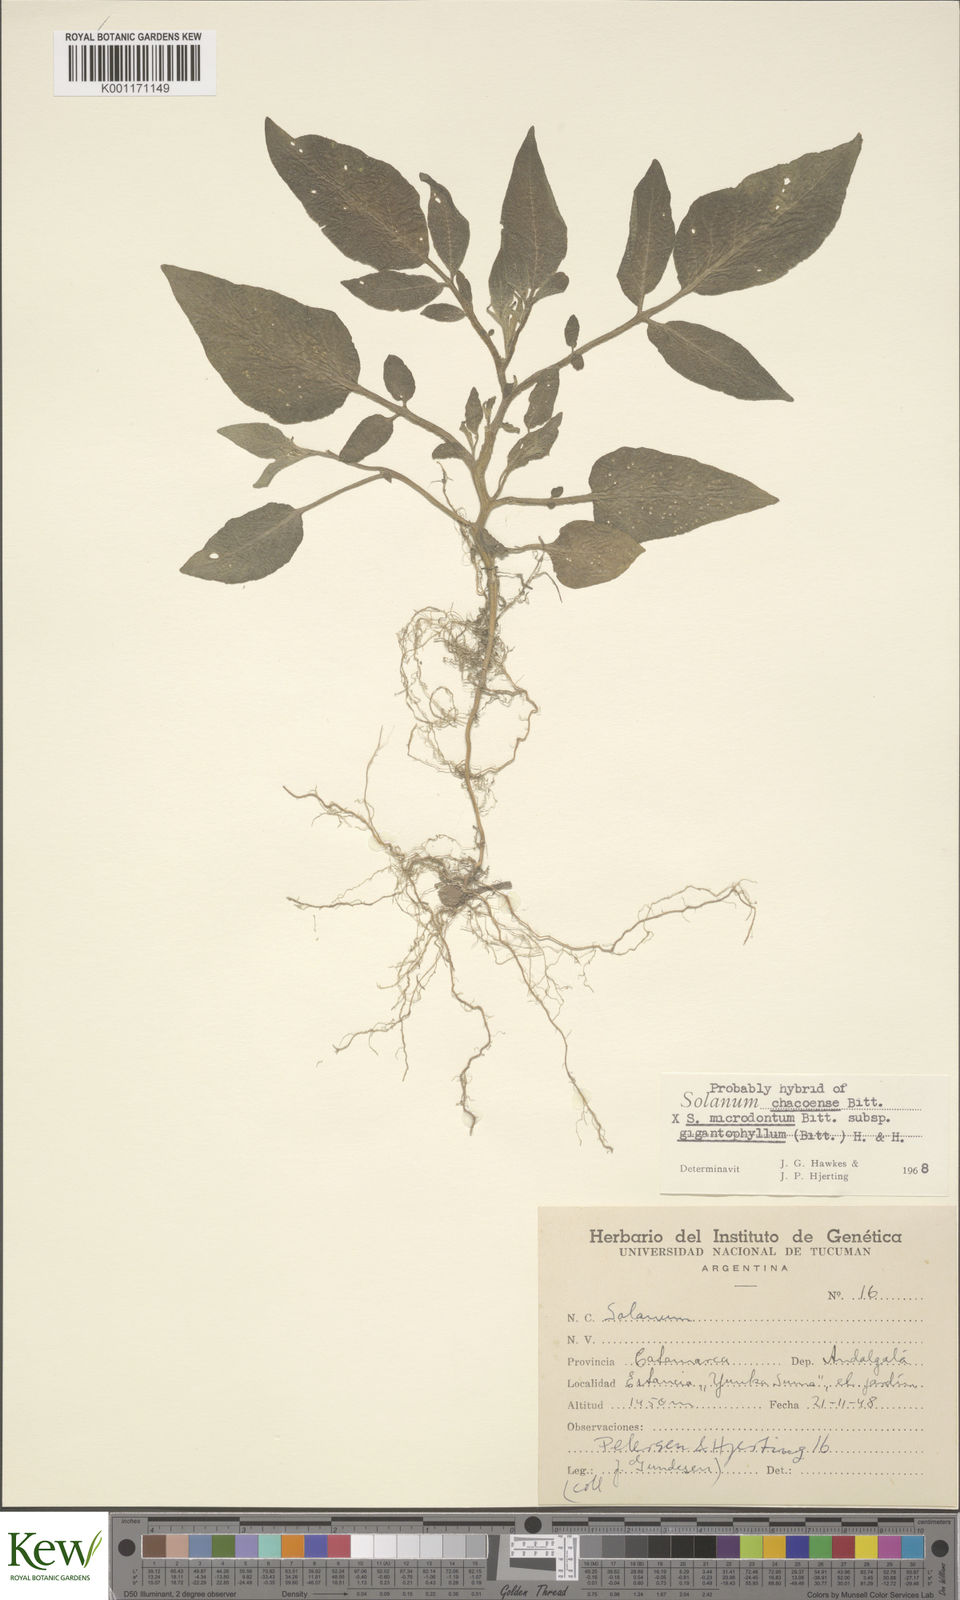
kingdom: Plantae
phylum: Tracheophyta
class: Magnoliopsida
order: Solanales
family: Solanaceae
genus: Solanum
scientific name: Solanum microdontum
